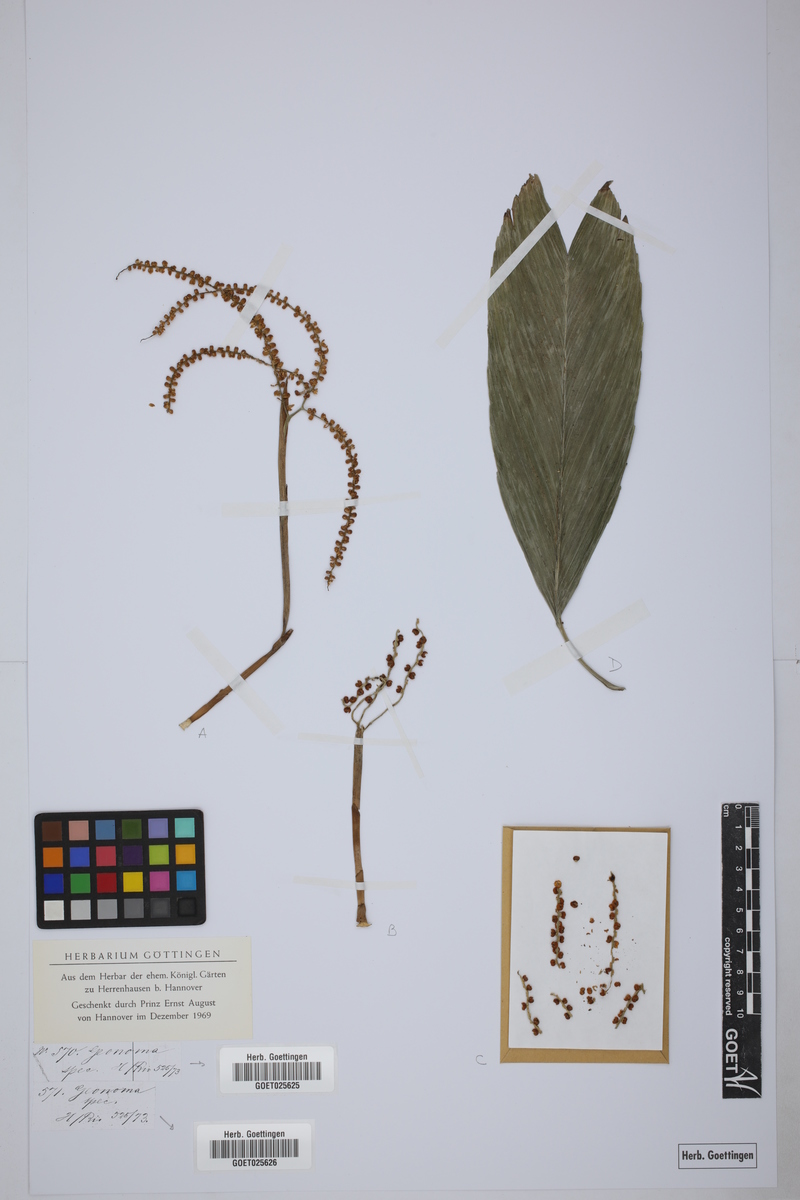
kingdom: Plantae
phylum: Tracheophyta
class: Liliopsida
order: Arecales
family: Arecaceae
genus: Geonoma
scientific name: Geonoma
